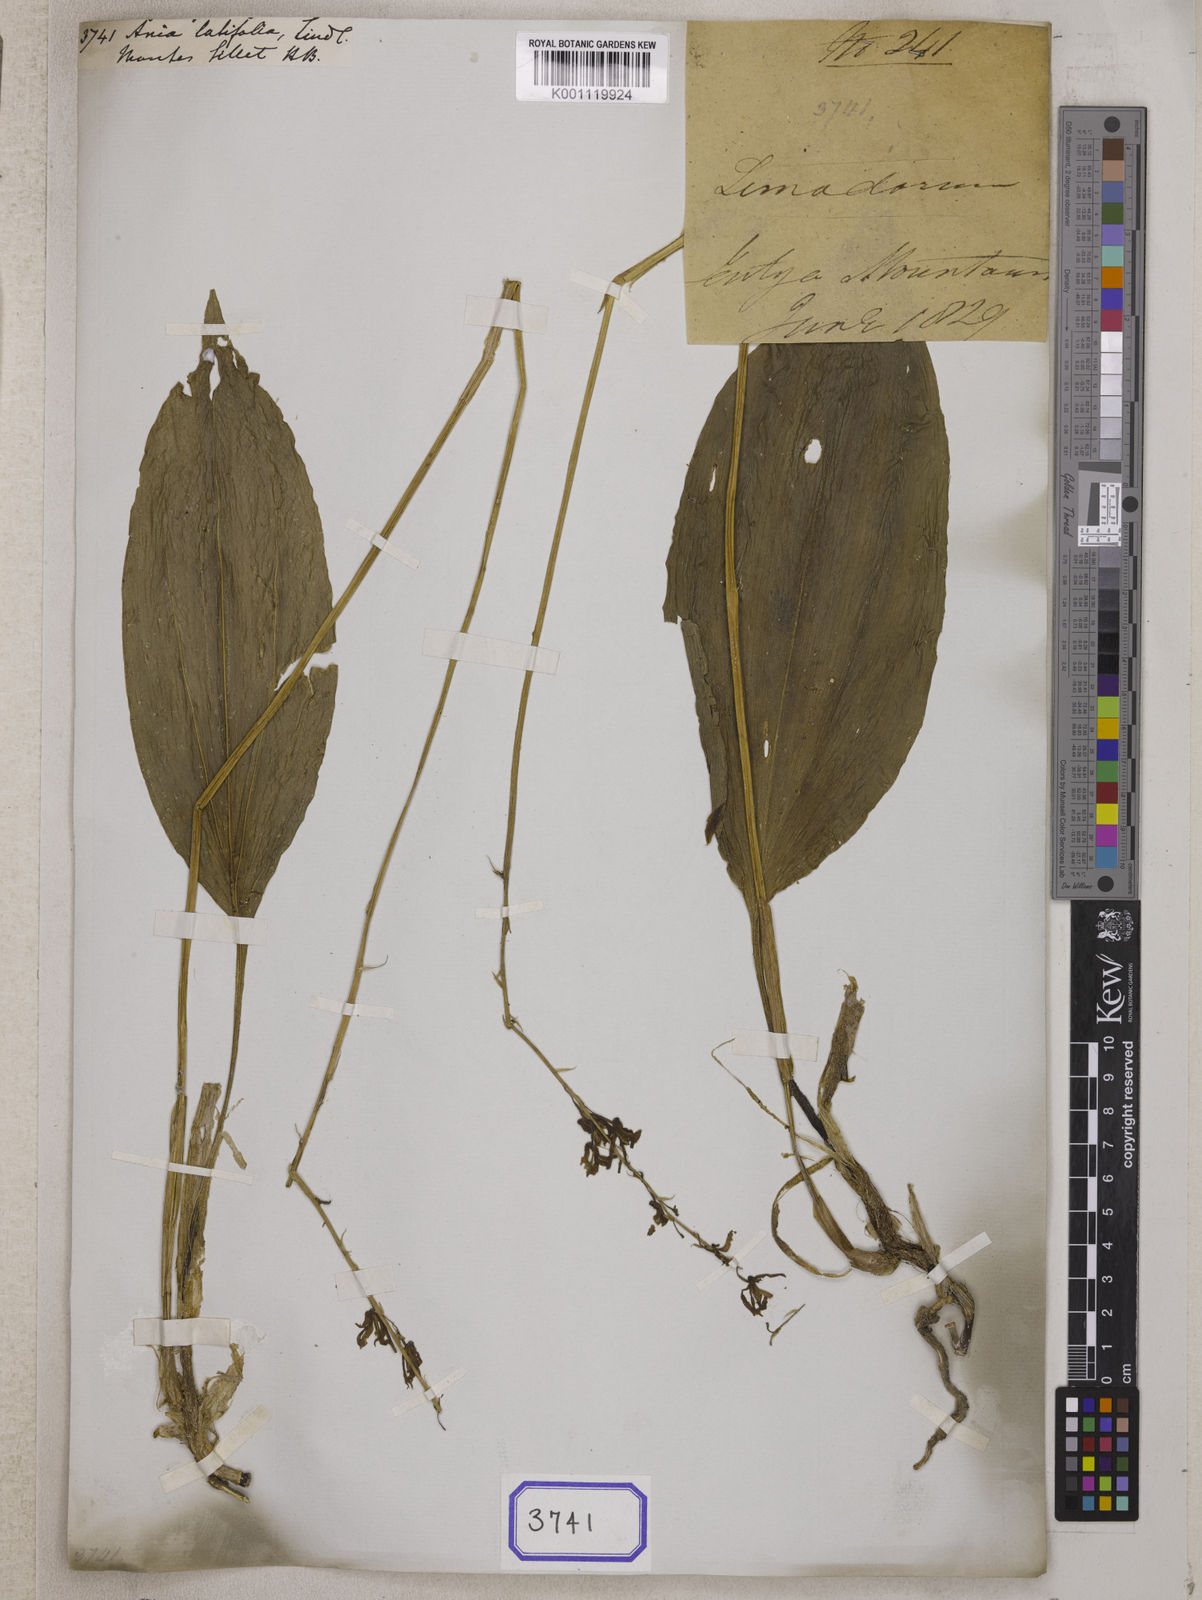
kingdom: Plantae
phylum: Tracheophyta
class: Liliopsida
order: Asparagales
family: Orchidaceae
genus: Tainia
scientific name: Tainia latifolia
